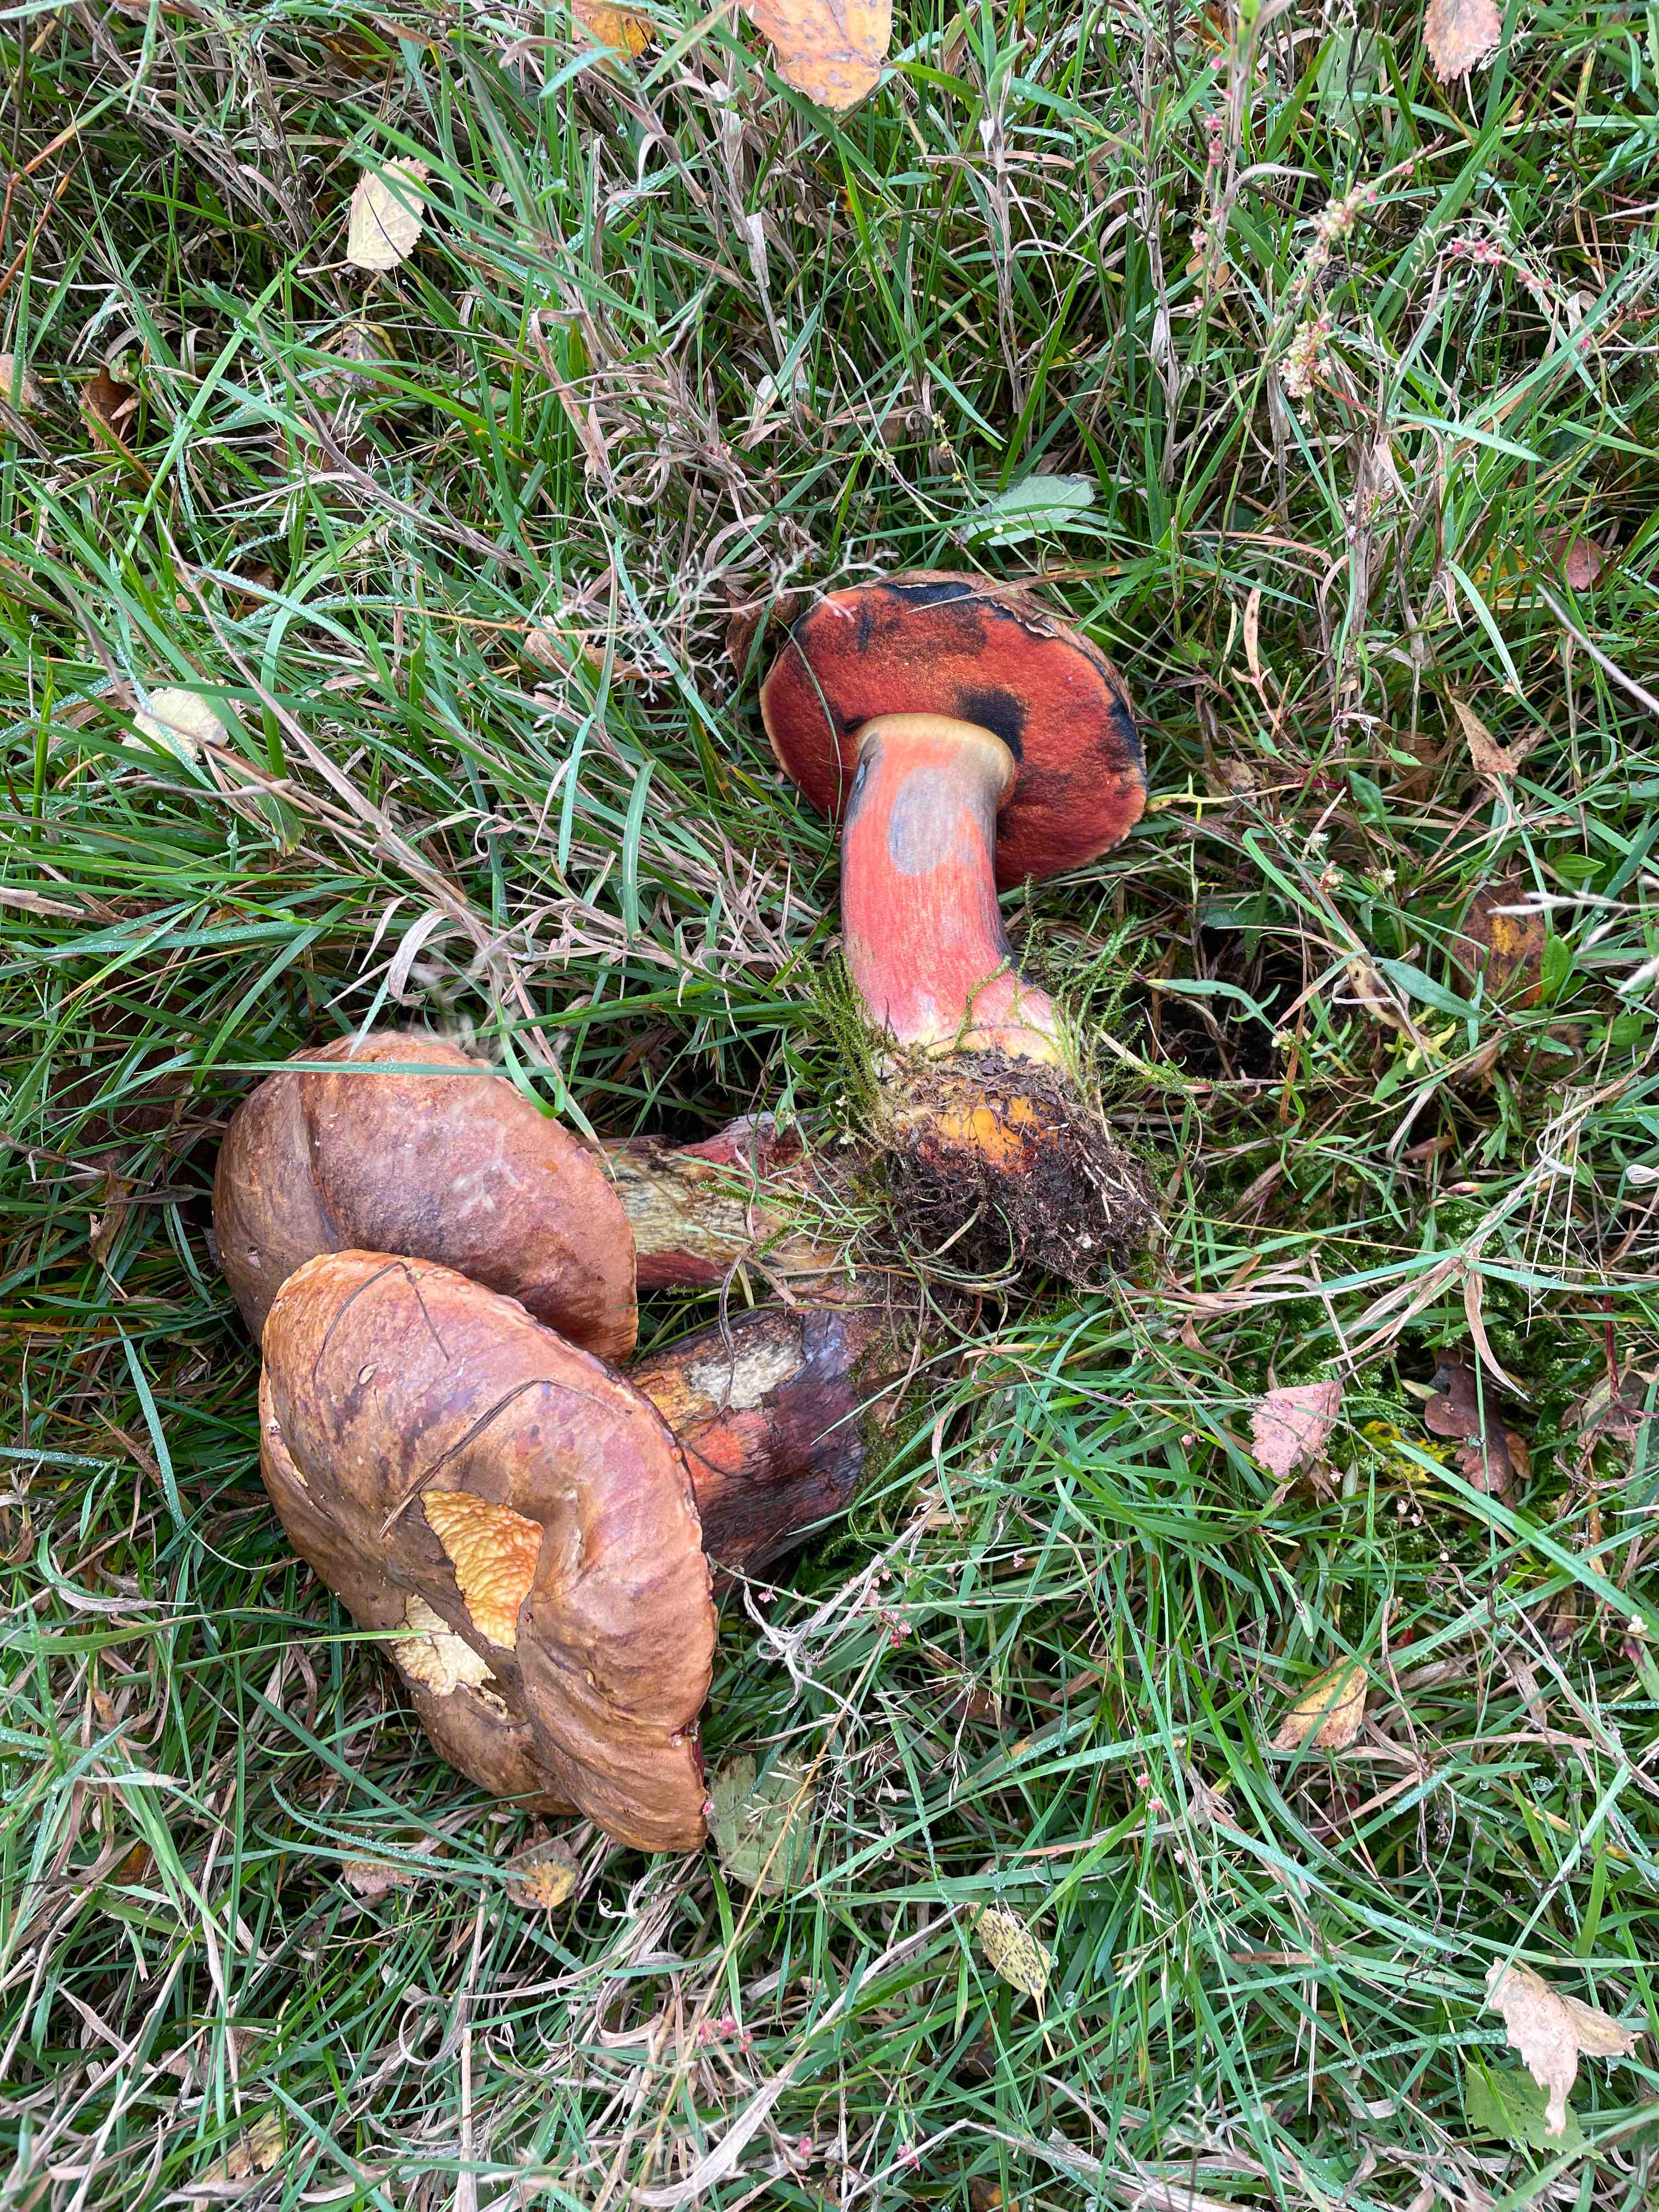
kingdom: Fungi
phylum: Basidiomycota
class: Agaricomycetes
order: Boletales
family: Boletaceae
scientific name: Boletaceae
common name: rørhatfamilien
